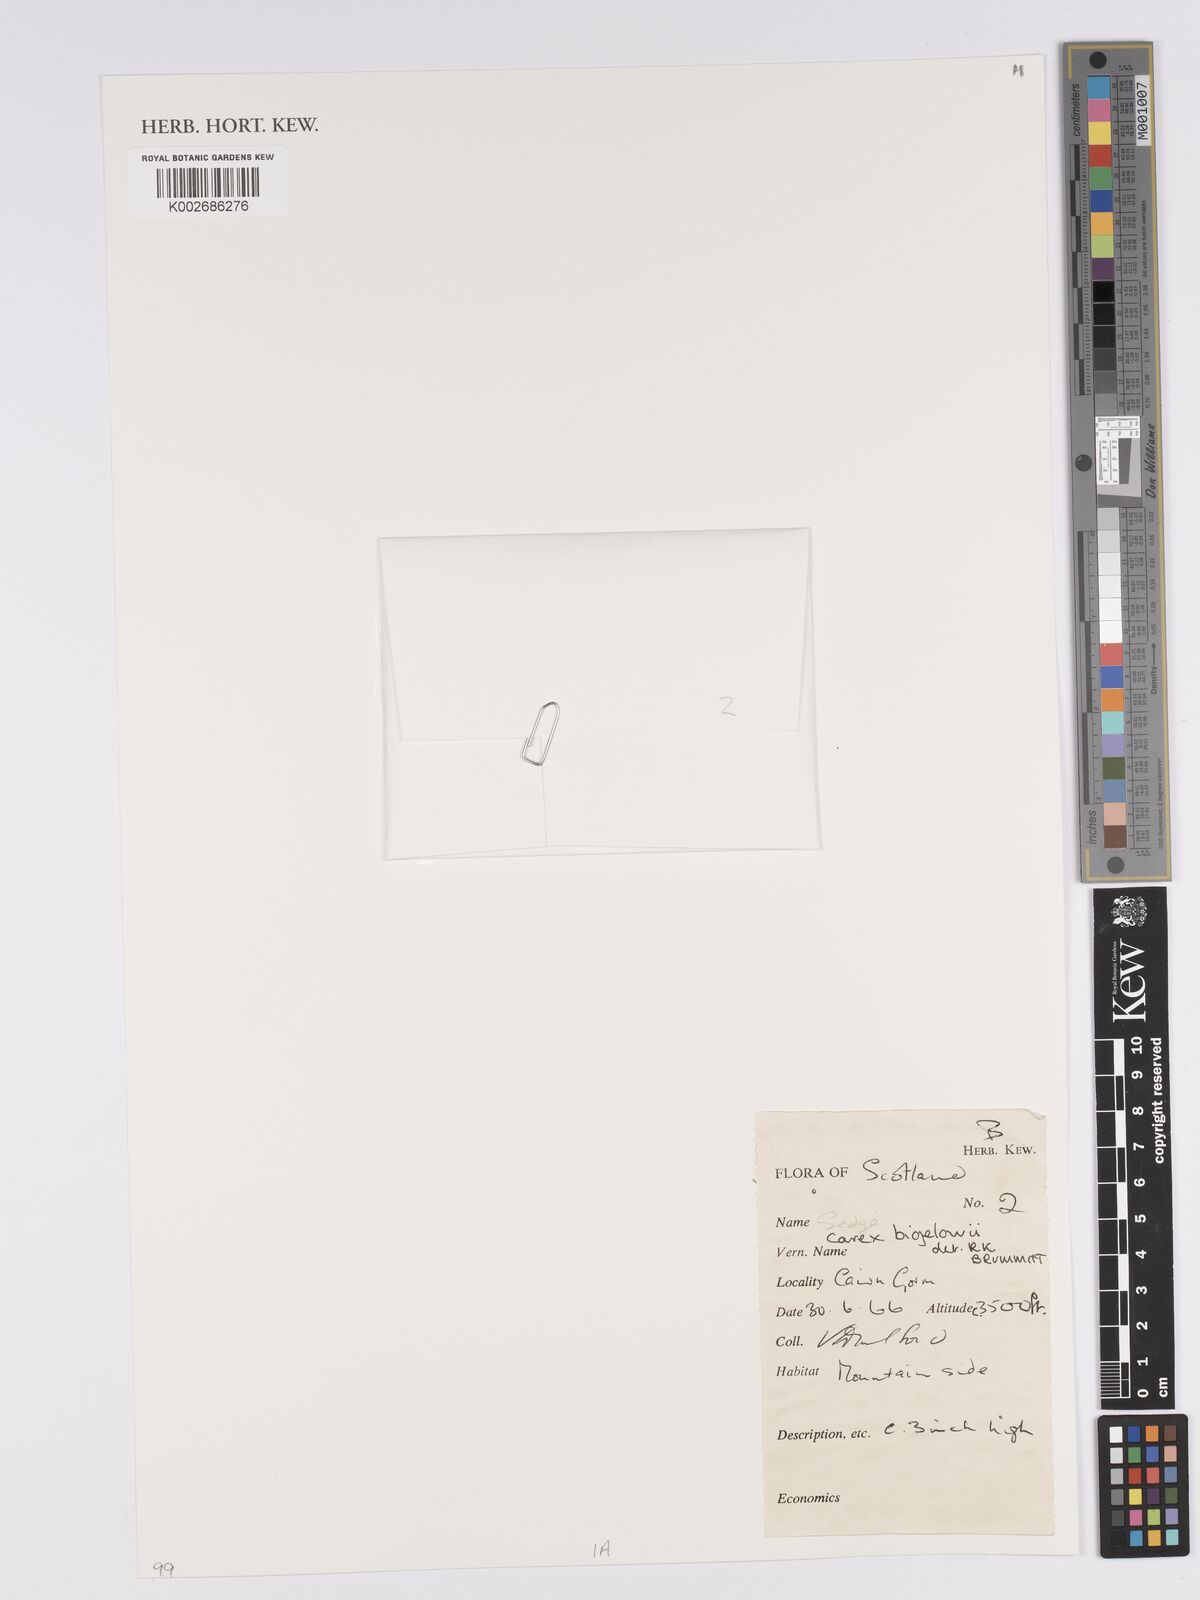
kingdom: Plantae
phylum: Tracheophyta
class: Liliopsida
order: Poales
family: Cyperaceae
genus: Carex
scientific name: Carex bigelowii
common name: Stiff sedge
